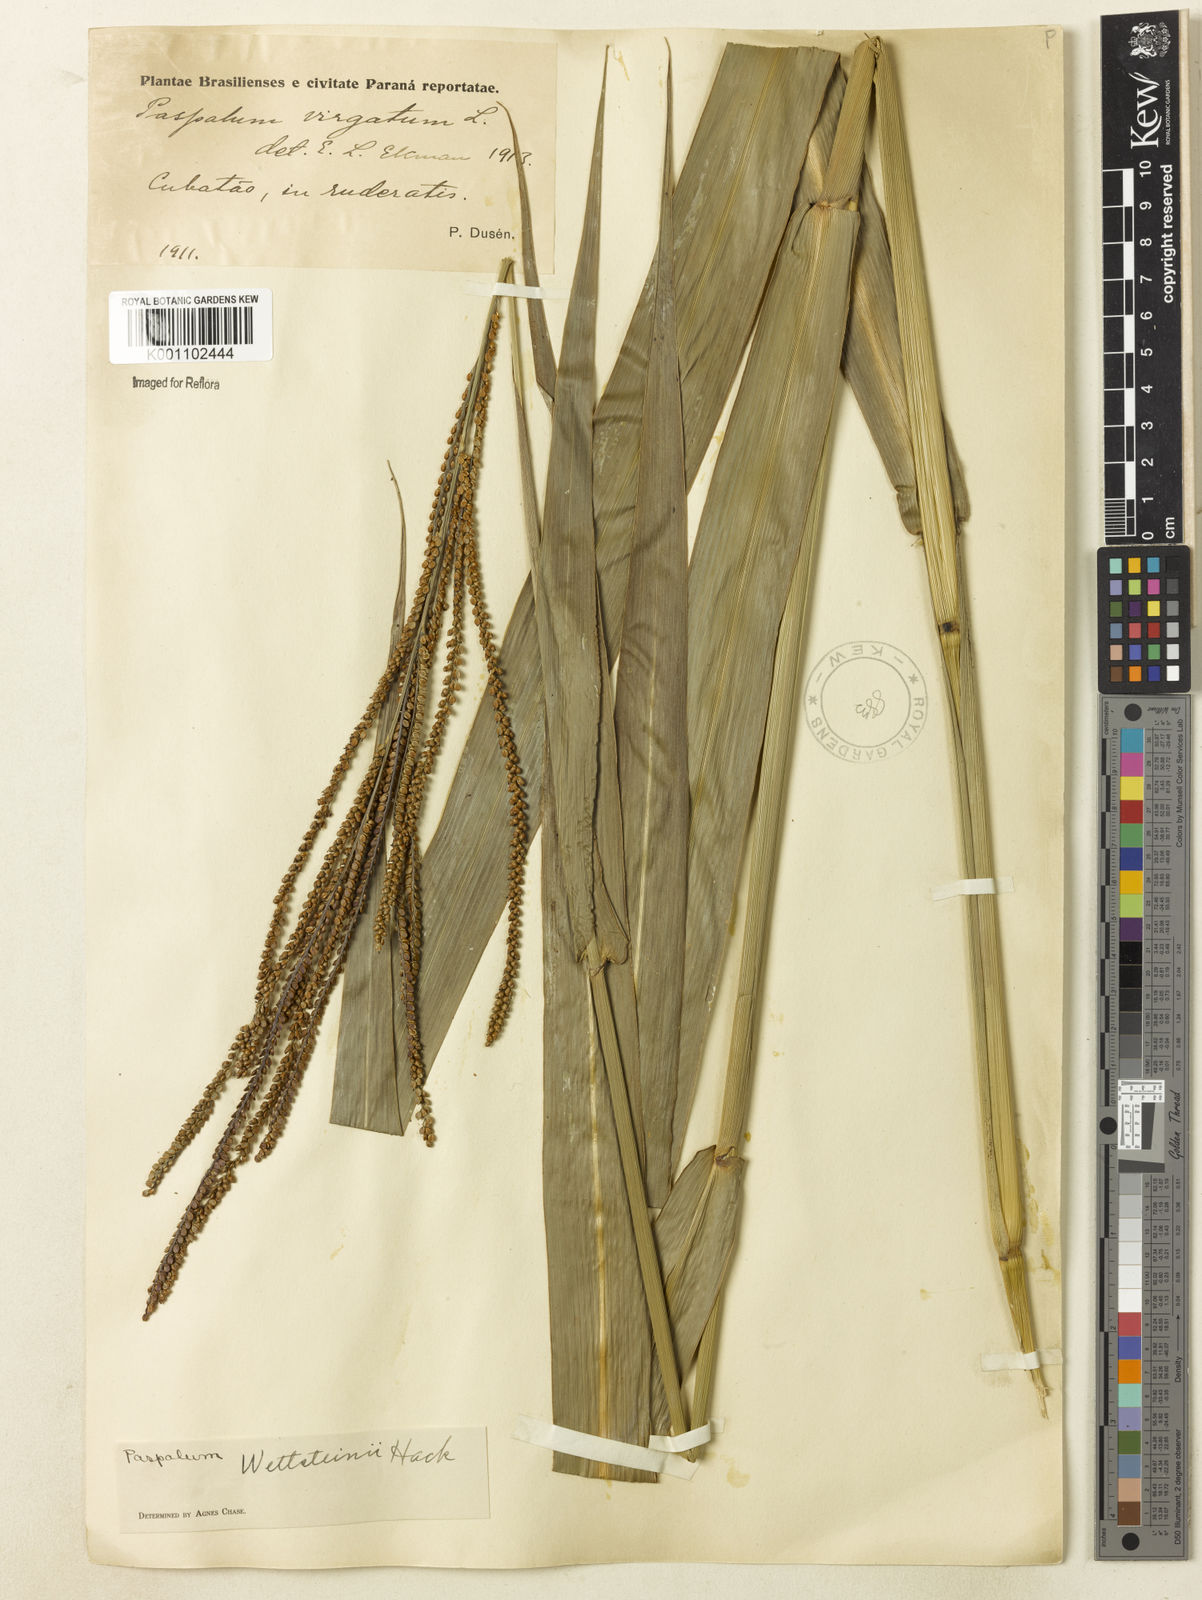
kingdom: Plantae
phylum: Tracheophyta
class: Liliopsida
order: Poales
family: Poaceae
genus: Paspalum
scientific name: Paspalum virgatum
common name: Talquezal
